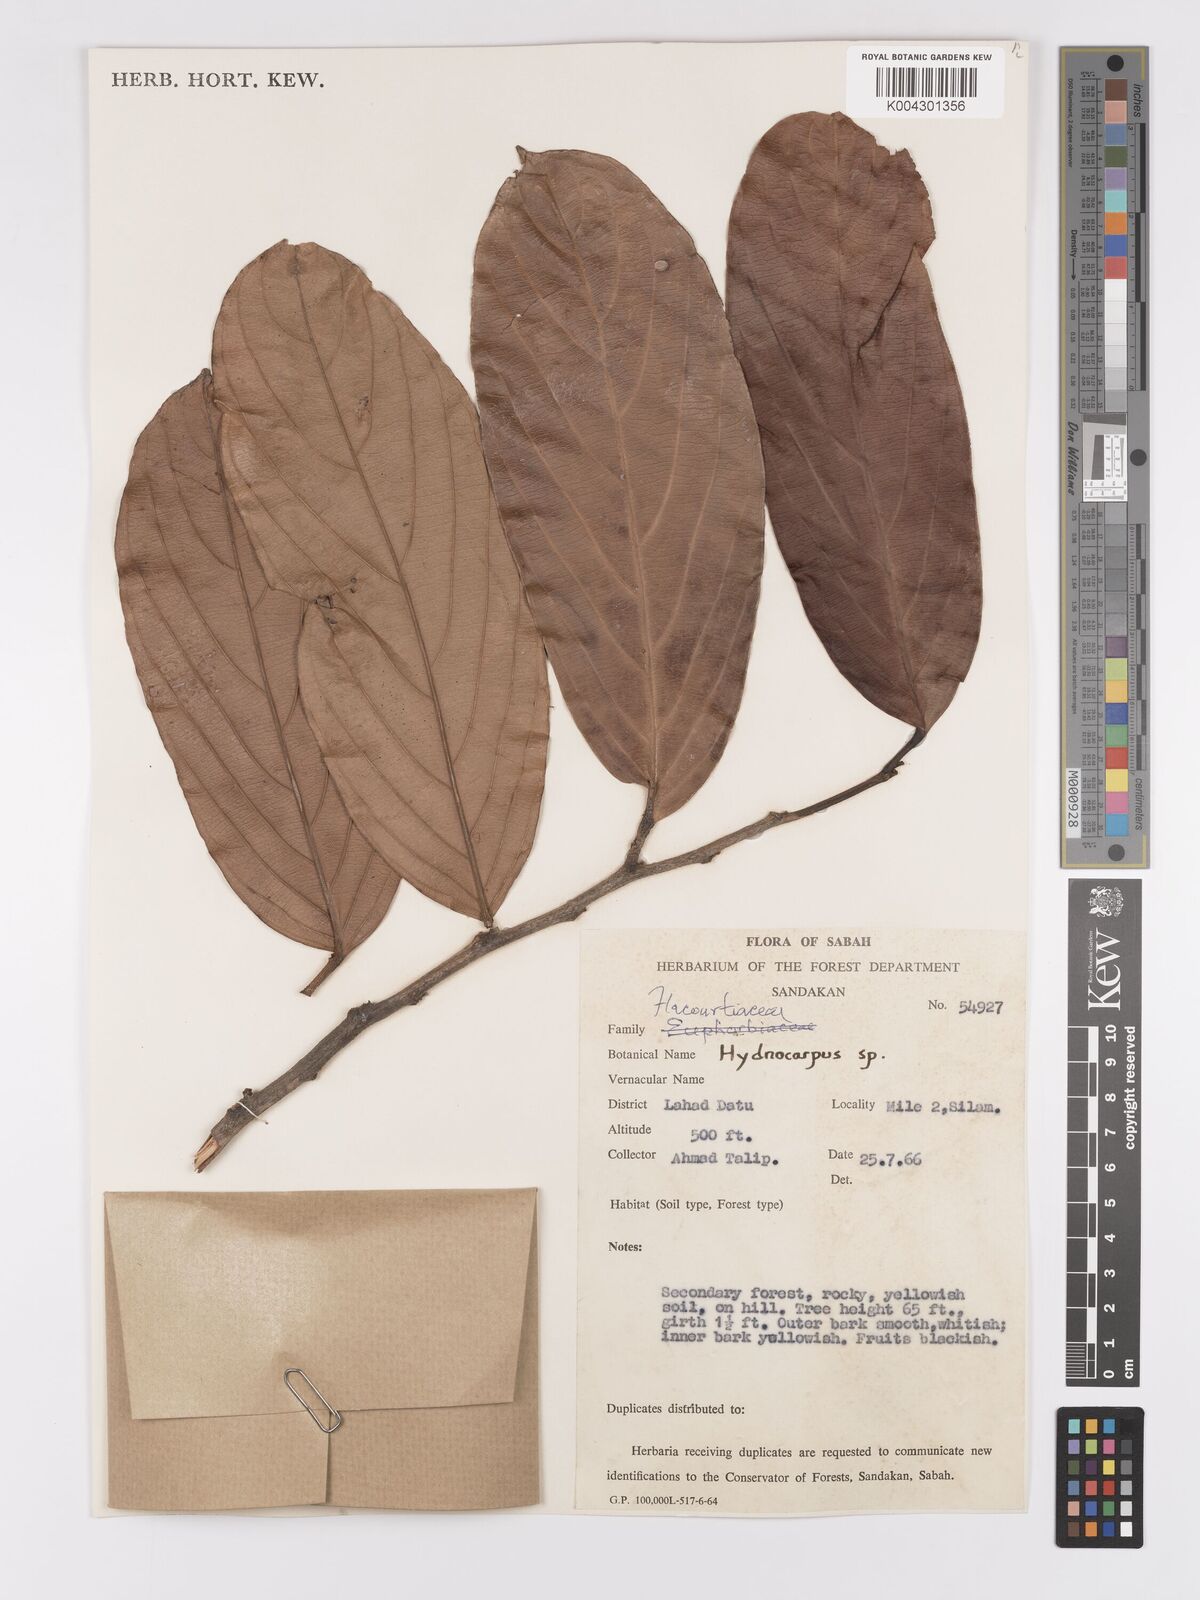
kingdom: Plantae
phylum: Tracheophyta
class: Magnoliopsida
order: Malpighiales
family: Achariaceae
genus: Hydnocarpus
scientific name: Hydnocarpus
